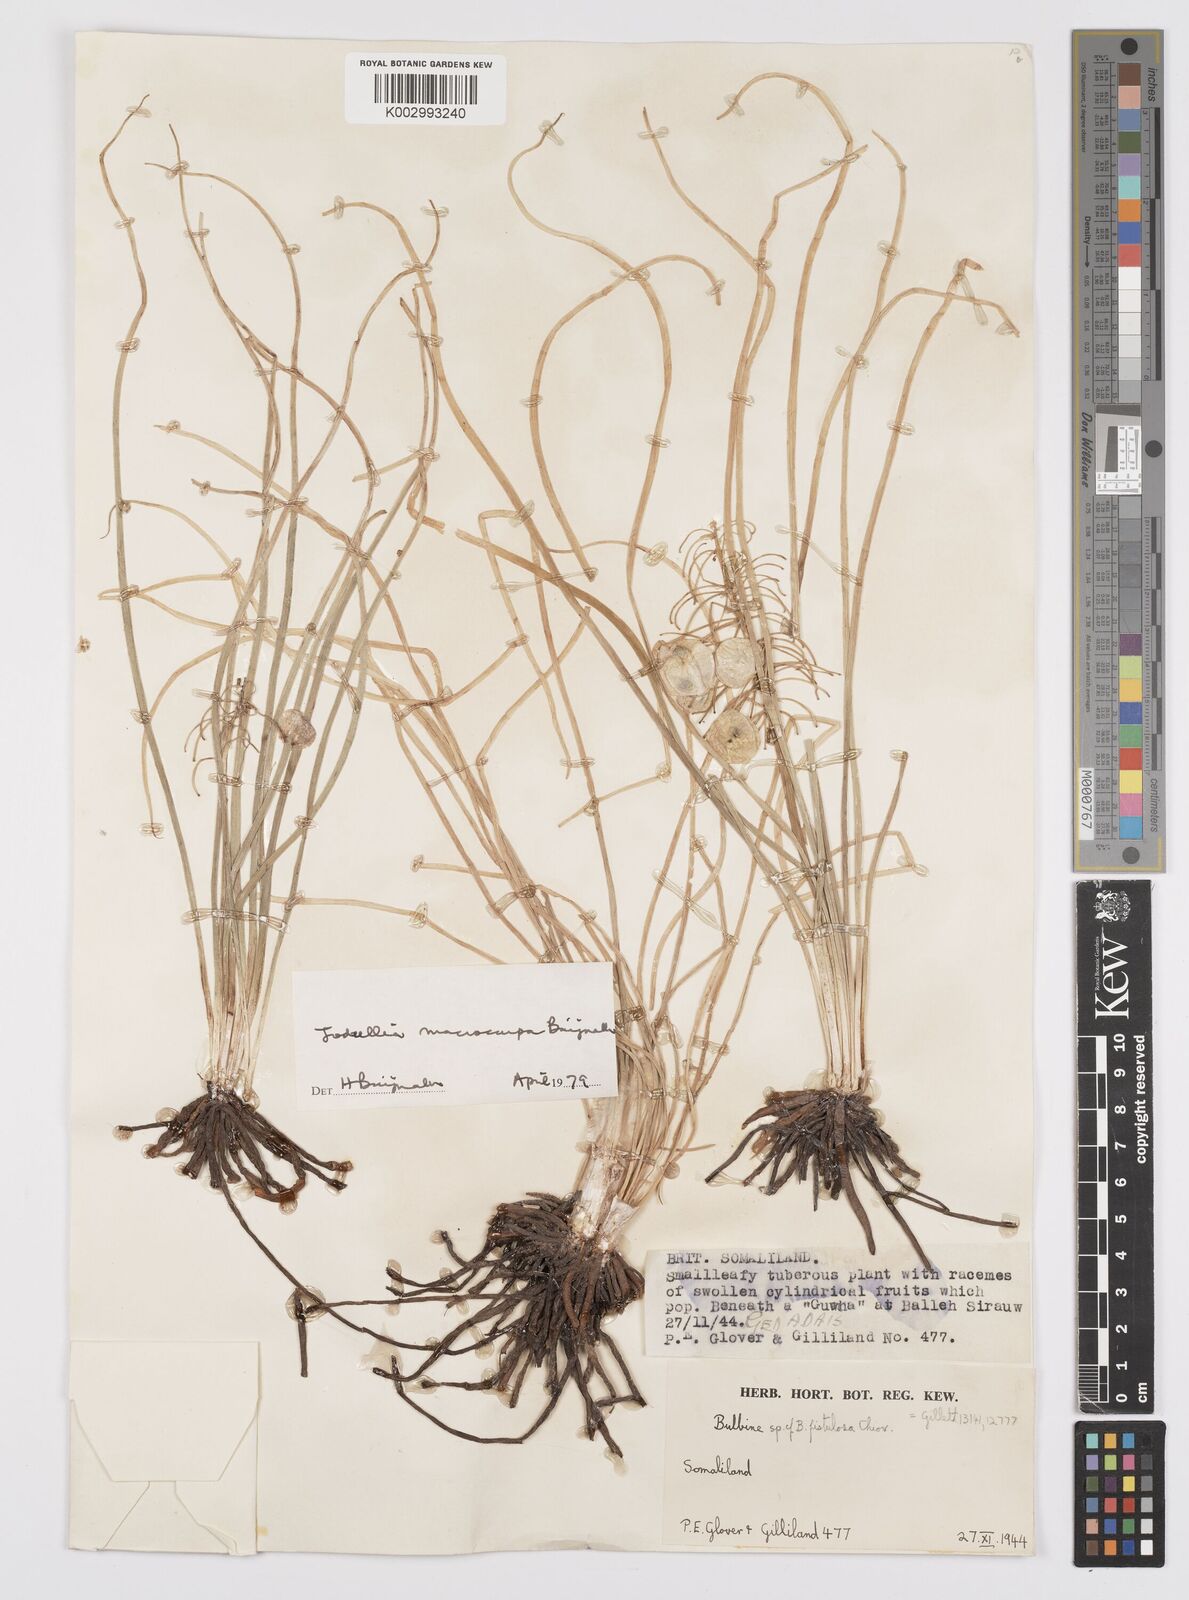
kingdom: Plantae
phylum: Tracheophyta
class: Liliopsida
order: Asparagales
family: Asphodelaceae
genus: Bulbine
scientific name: Bulbine migiurtina
